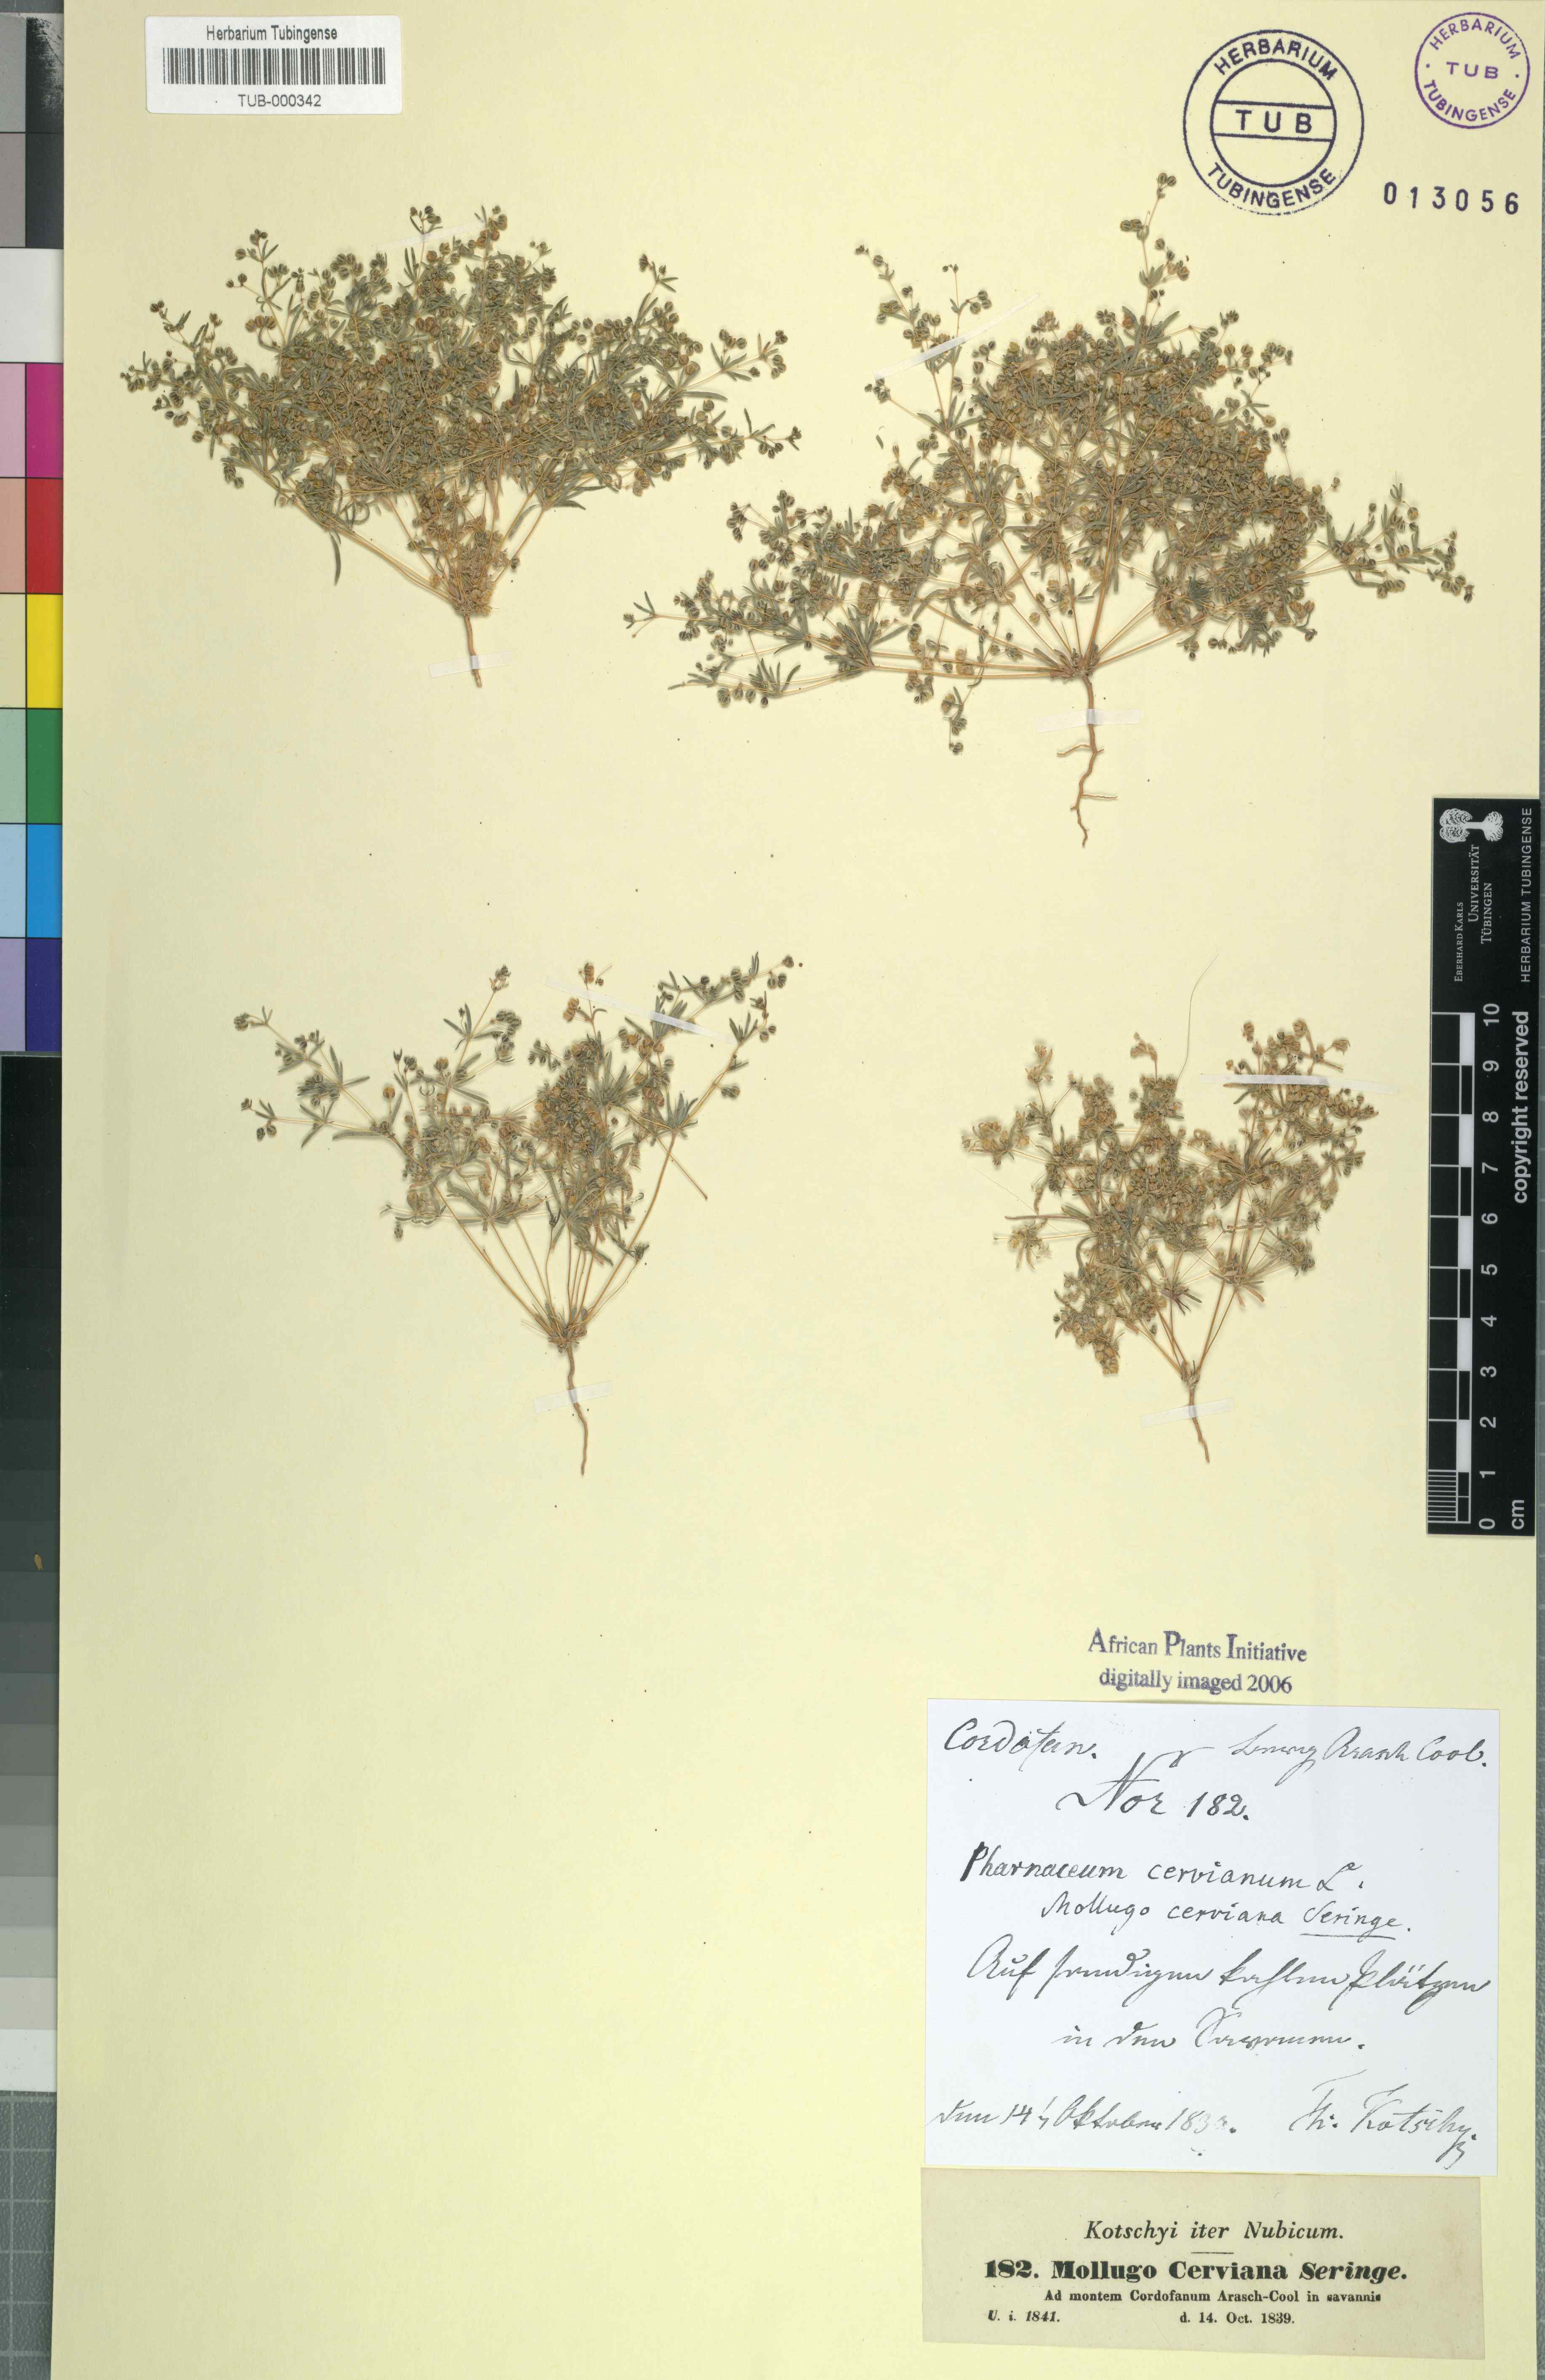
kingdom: Plantae
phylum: Tracheophyta
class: Magnoliopsida
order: Caryophyllales
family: Molluginaceae
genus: Hypertelis
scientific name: Hypertelis cerviana
